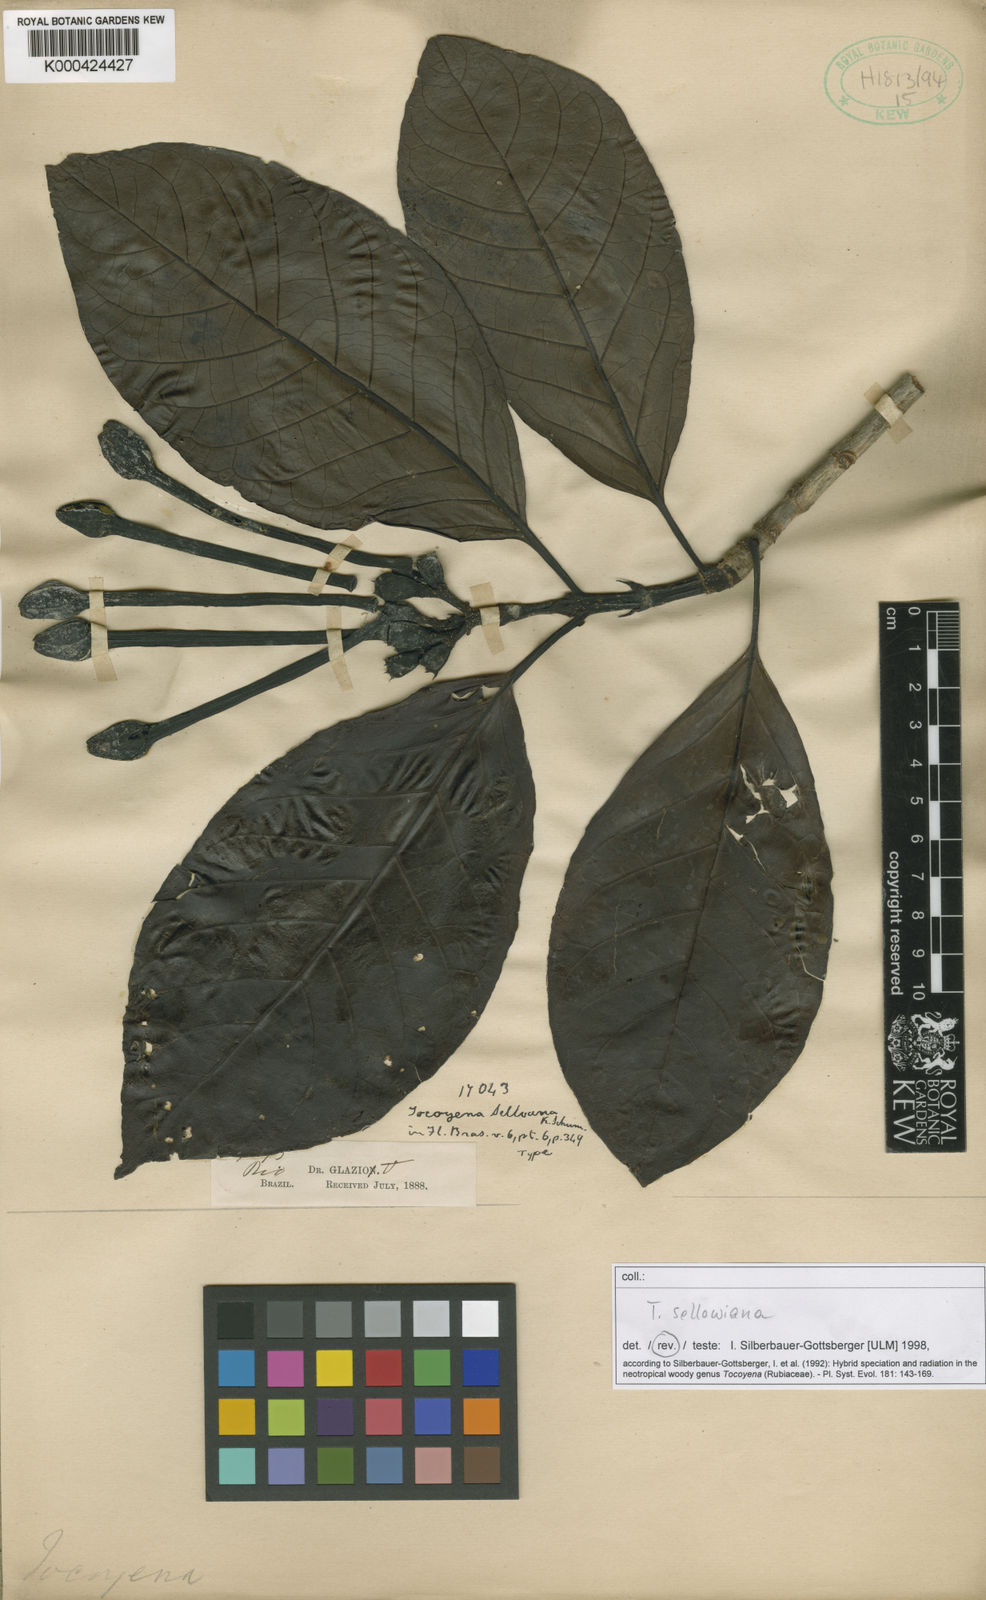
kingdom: Plantae
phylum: Tracheophyta
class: Magnoliopsida
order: Gentianales
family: Rubiaceae
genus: Tocoyena
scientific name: Tocoyena
